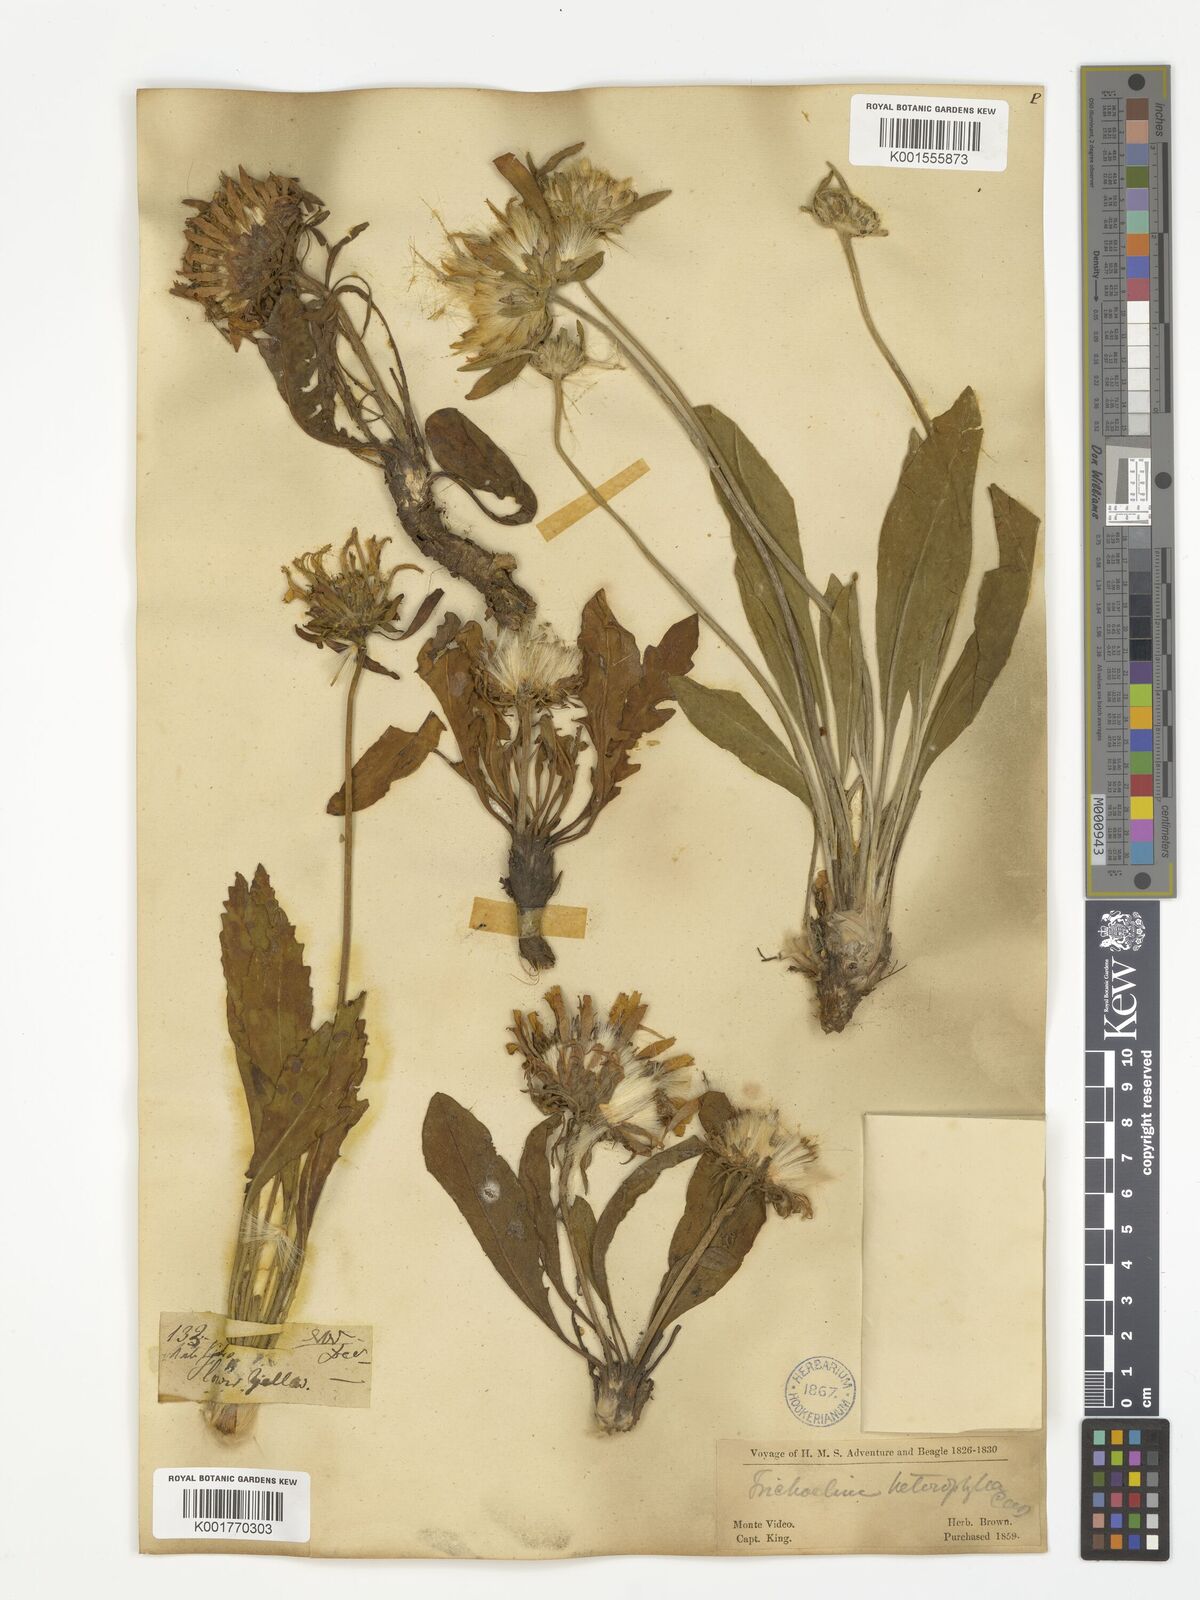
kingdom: Plantae
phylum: Tracheophyta
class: Magnoliopsida
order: Asterales
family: Asteraceae
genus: Trichocline
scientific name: Trichocline heterophylla
